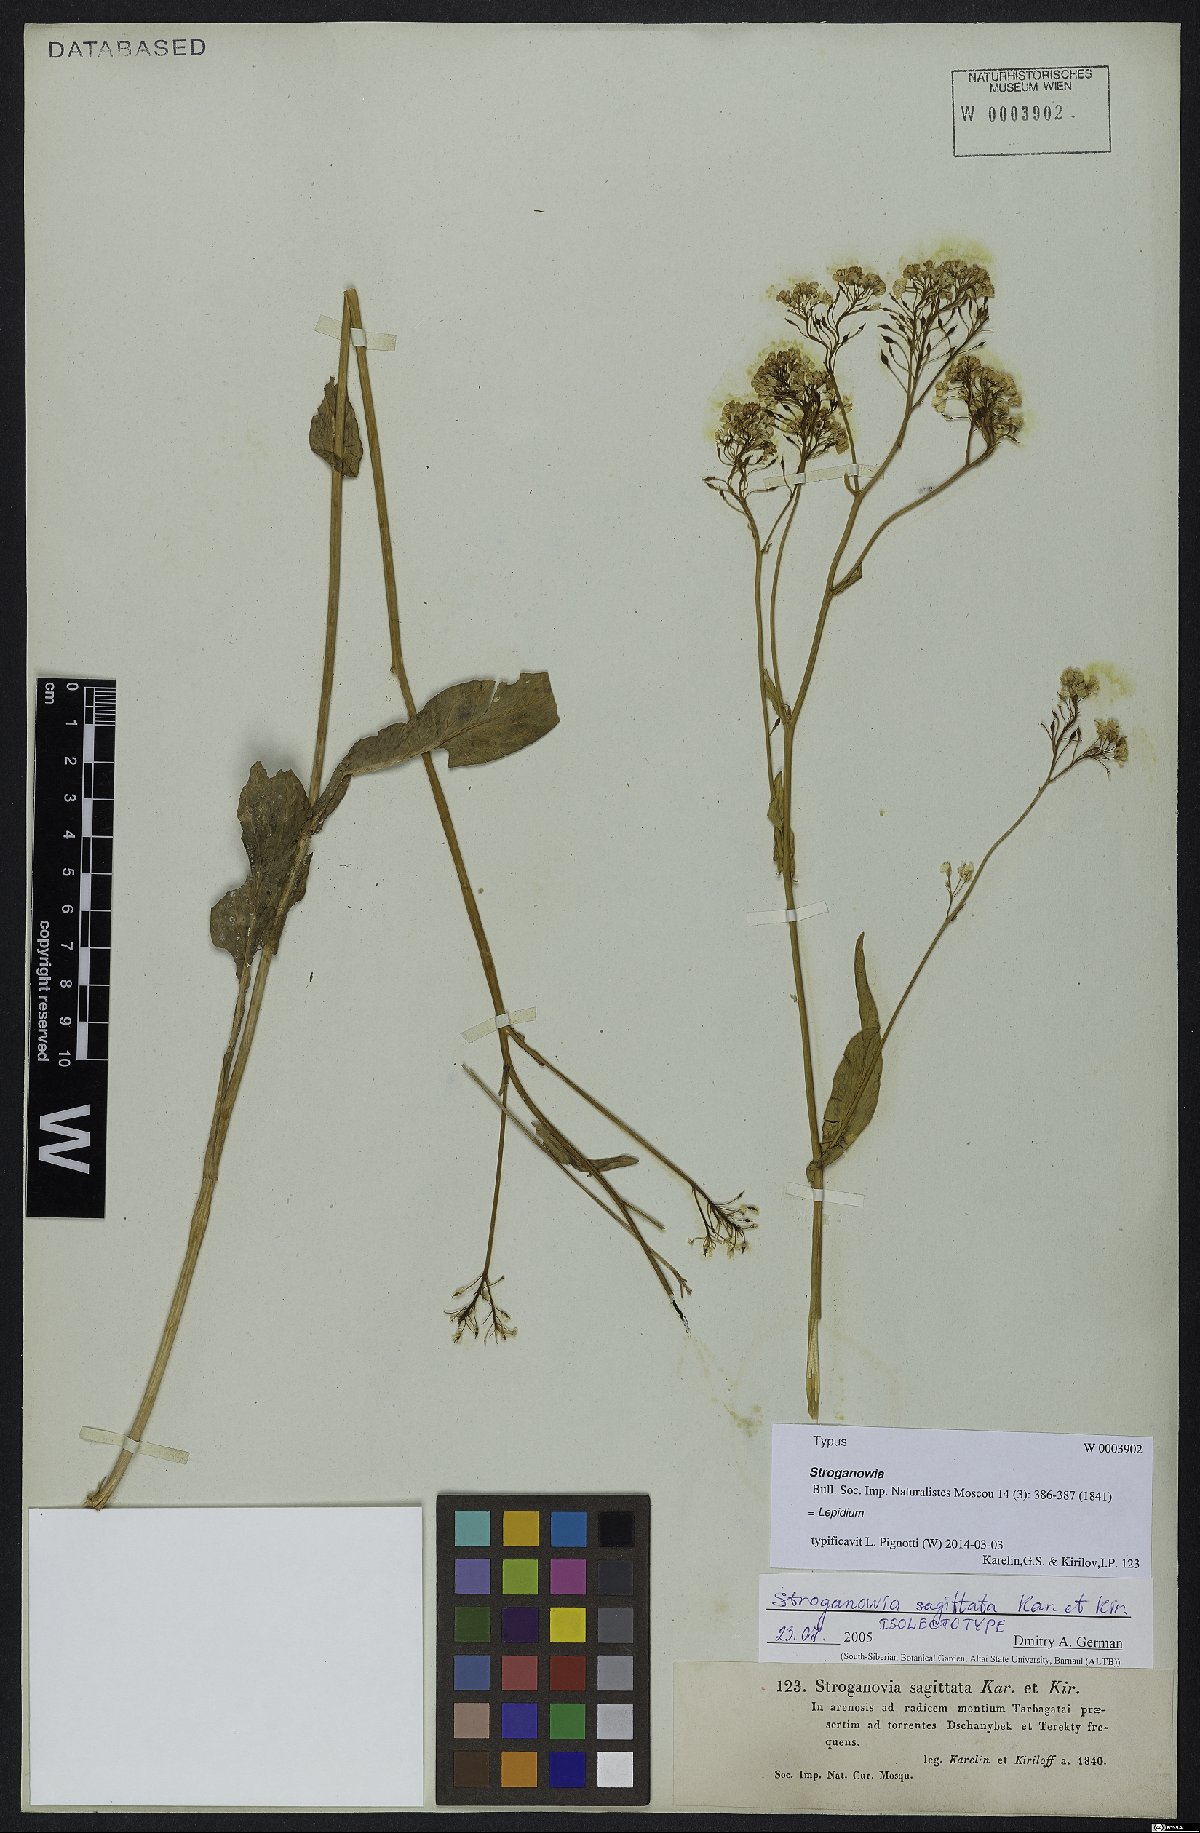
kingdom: Plantae
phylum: Tracheophyta
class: Magnoliopsida
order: Brassicales
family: Brassicaceae
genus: Lepidium
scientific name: Lepidium sagittatum
